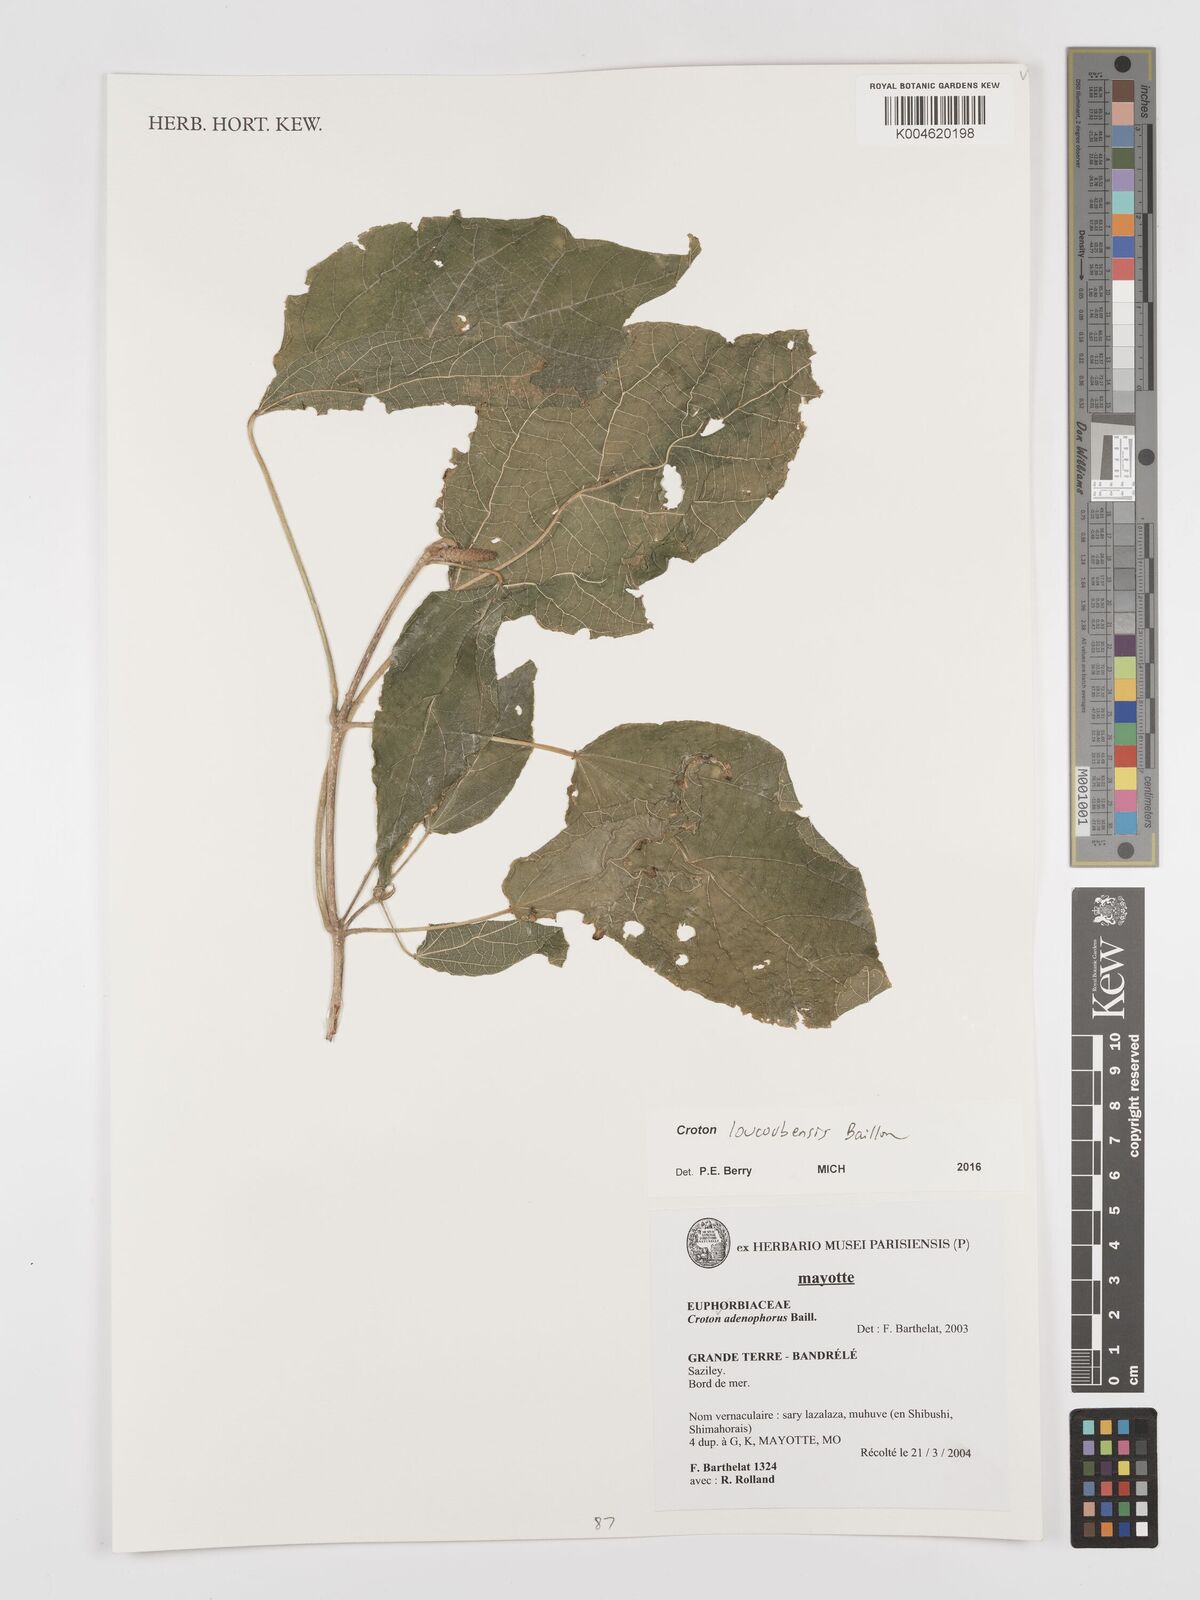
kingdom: Plantae
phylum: Tracheophyta
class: Magnoliopsida
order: Malpighiales
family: Euphorbiaceae
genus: Croton
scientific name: Croton loucoubensis
